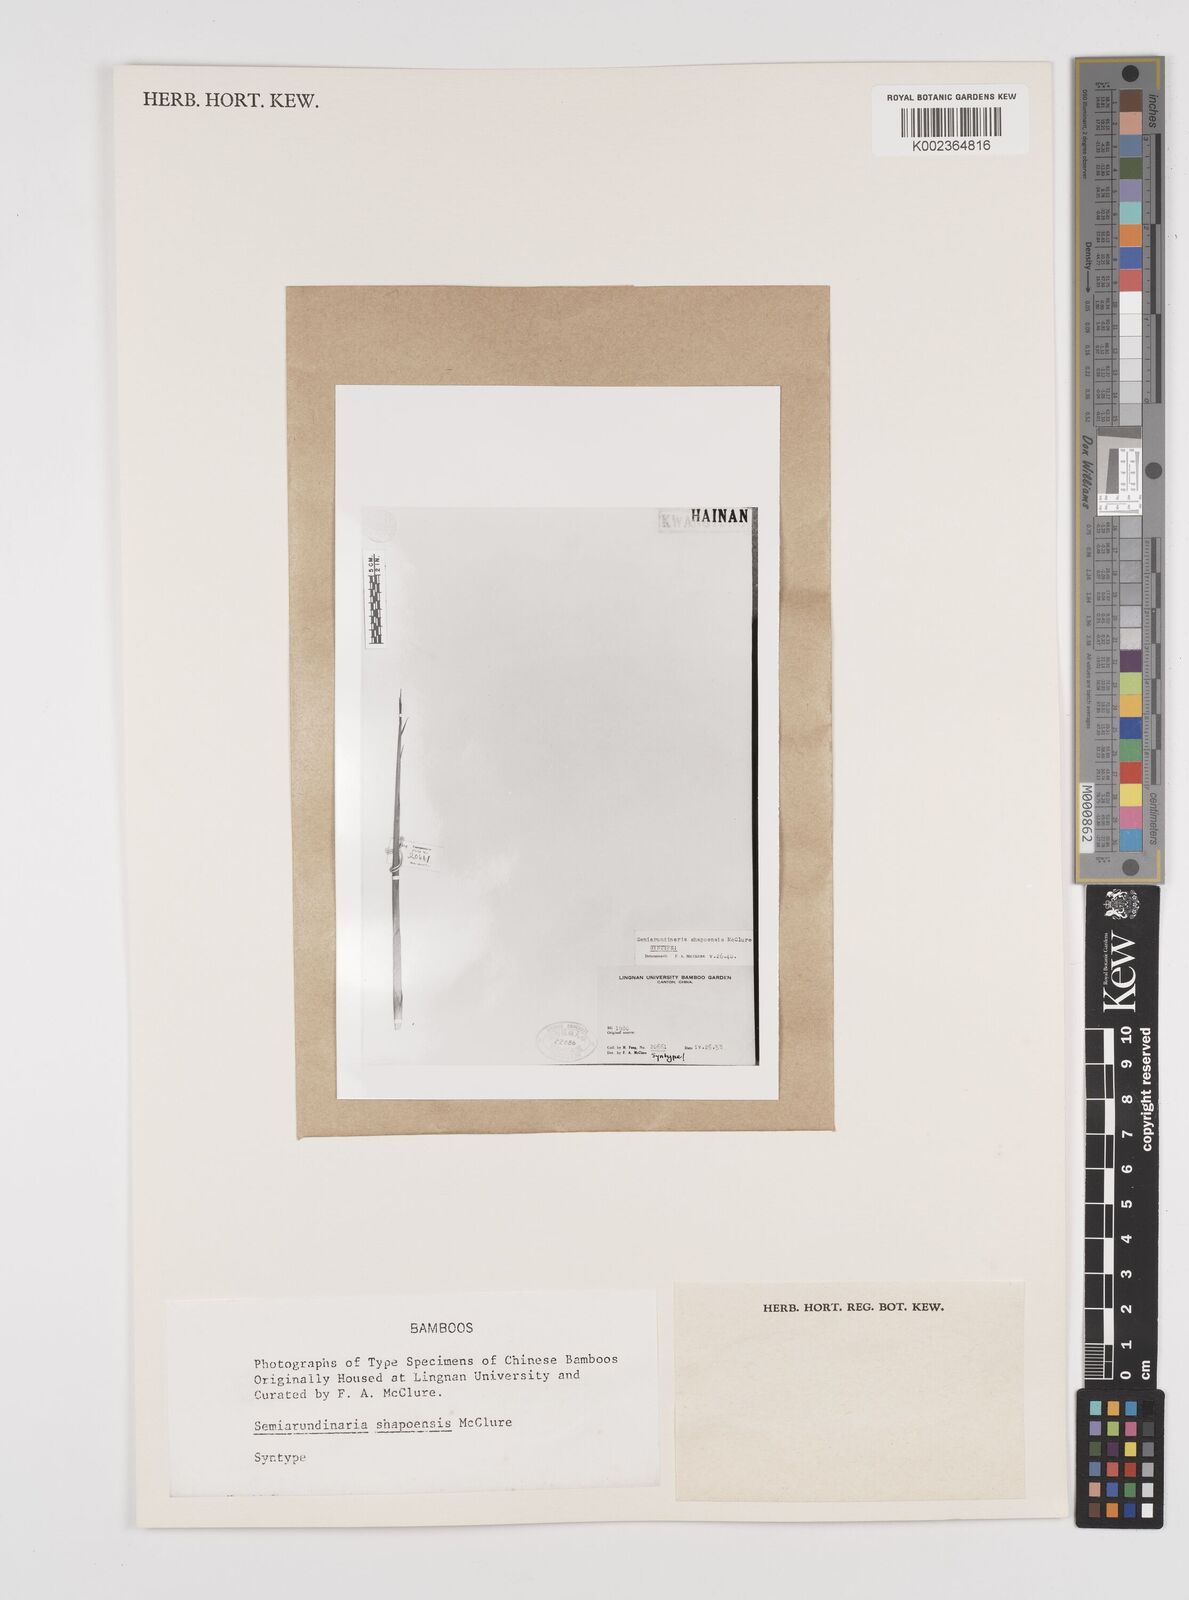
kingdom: Plantae
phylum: Tracheophyta
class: Liliopsida
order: Poales
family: Poaceae
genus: Semiarundinaria
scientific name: Semiarundinaria fastuosa
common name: Narihira bamboo
